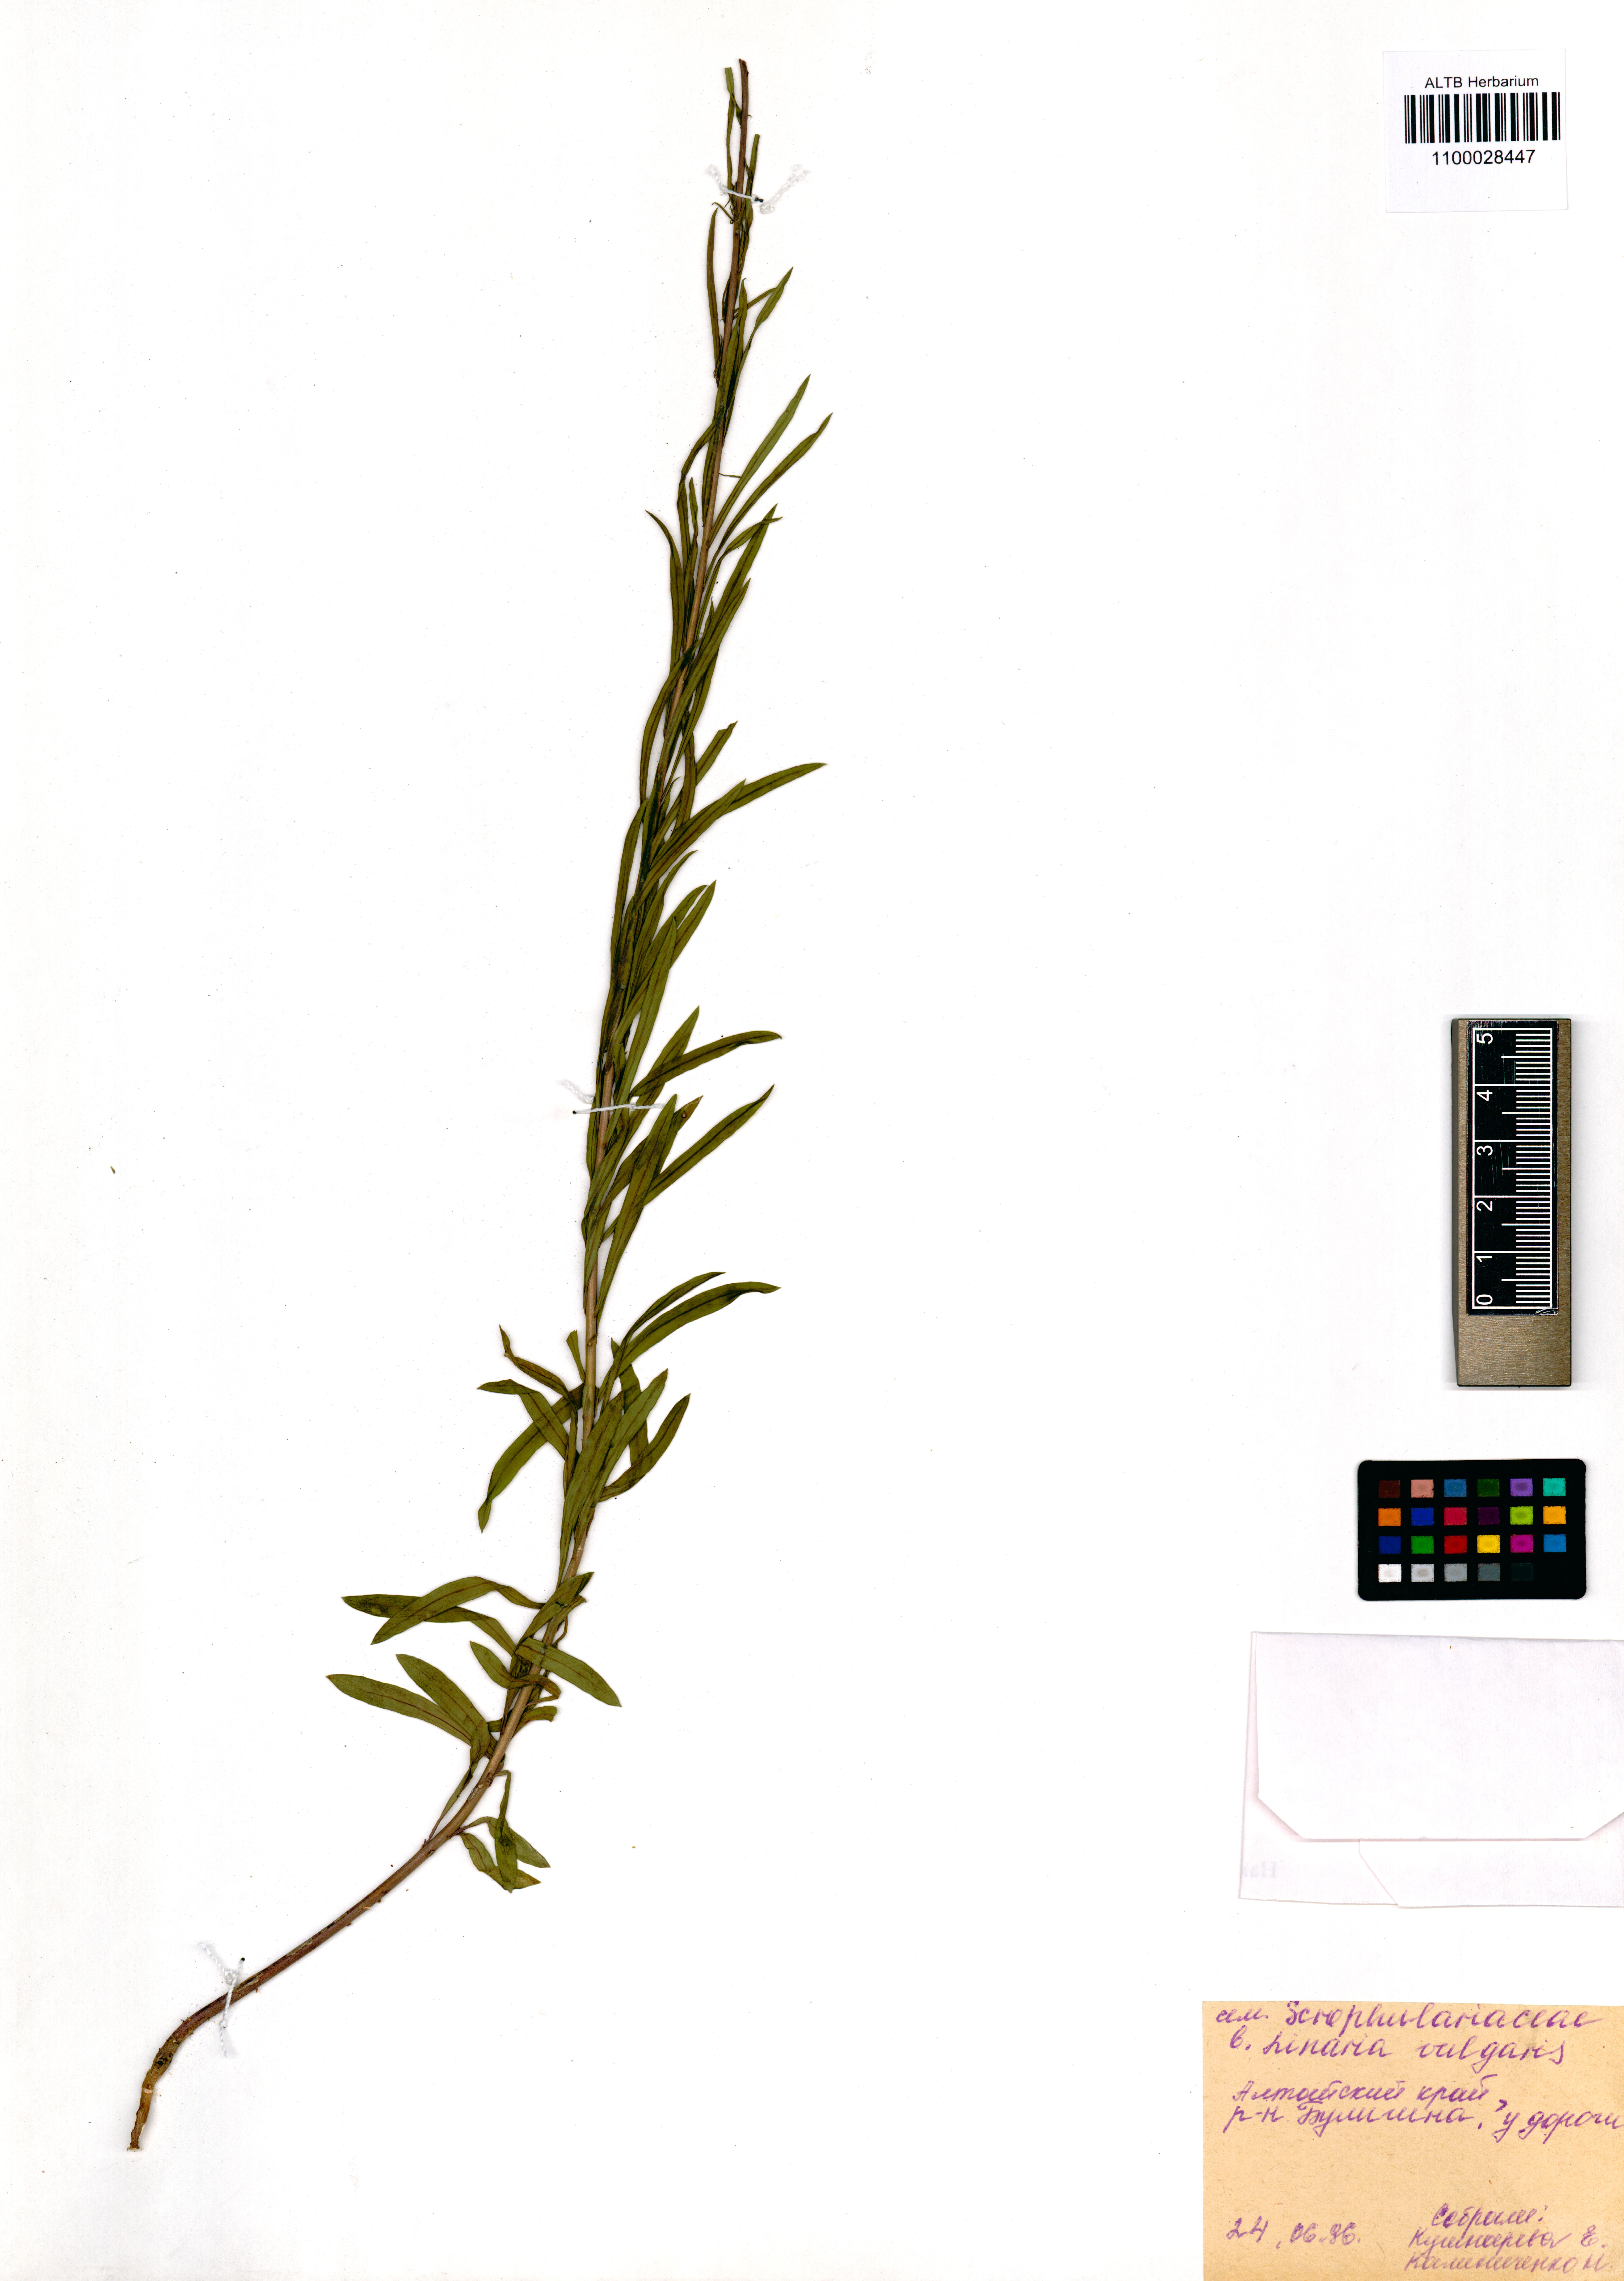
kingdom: Plantae
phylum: Tracheophyta
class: Magnoliopsida
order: Lamiales
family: Plantaginaceae
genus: Linaria
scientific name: Linaria vulgaris
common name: Butter and eggs
